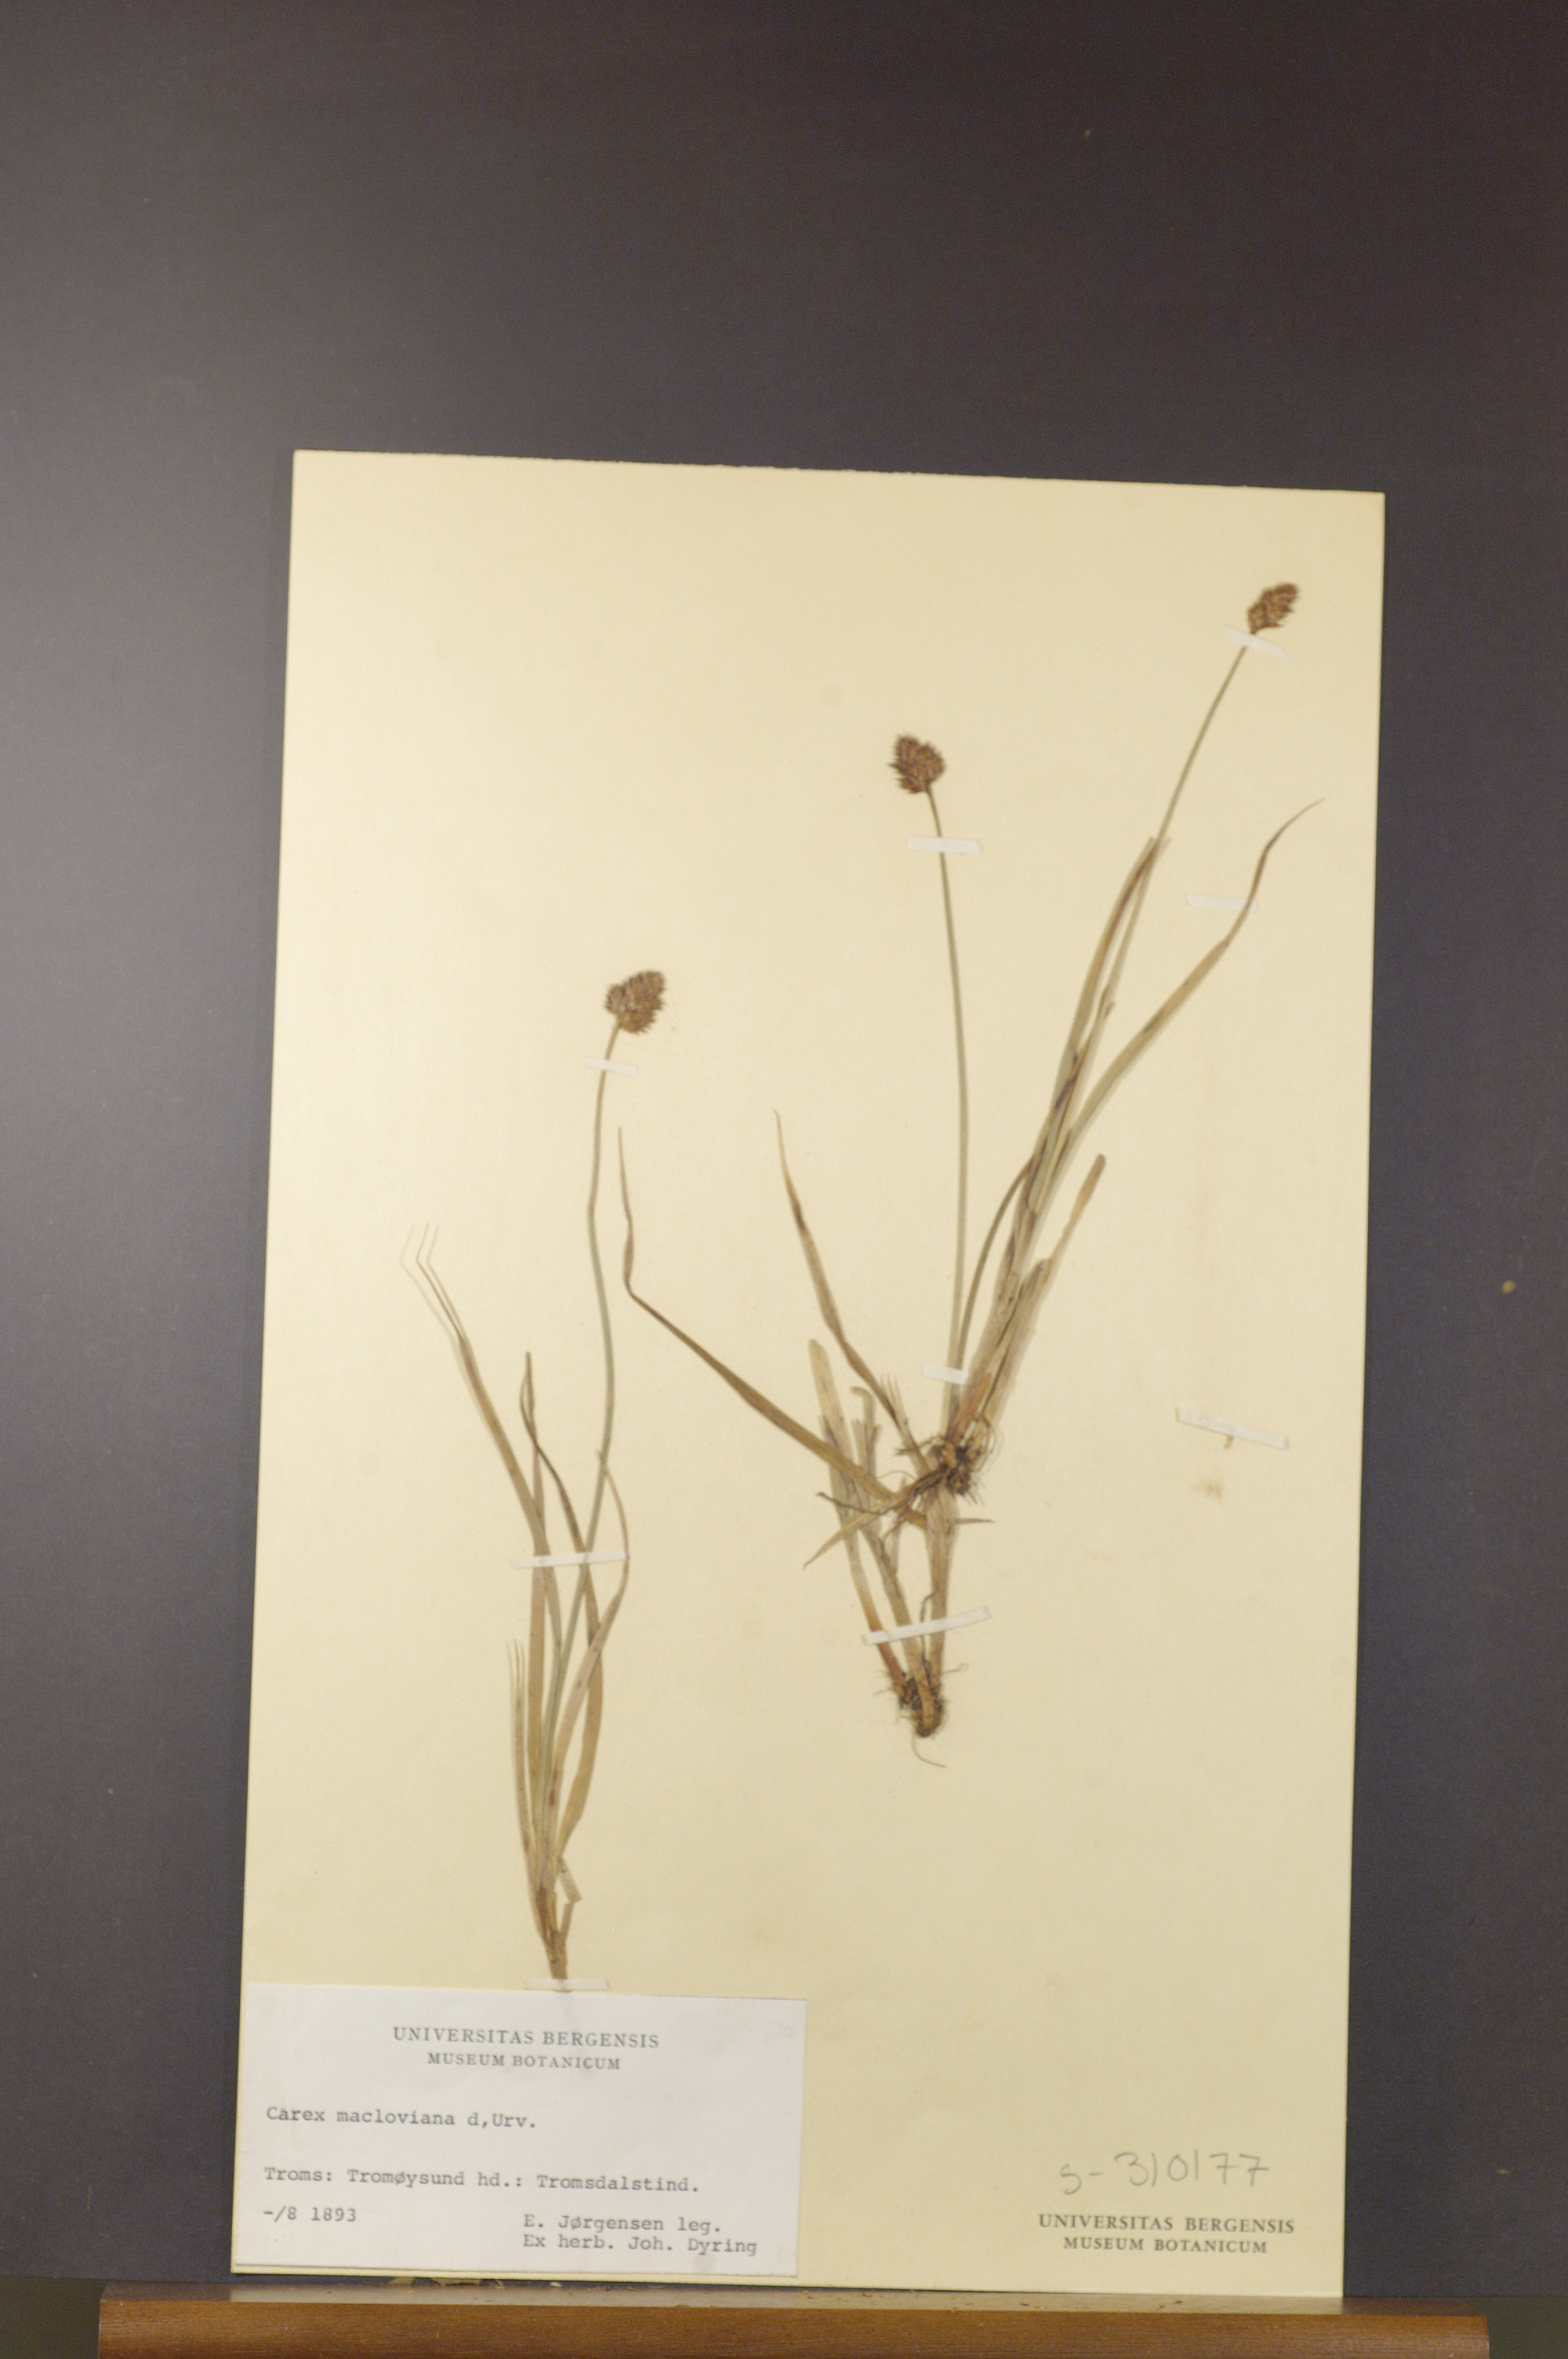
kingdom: Plantae
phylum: Tracheophyta
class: Liliopsida
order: Poales
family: Cyperaceae
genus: Carex
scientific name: Carex macloviana
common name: Falkland island sedge
